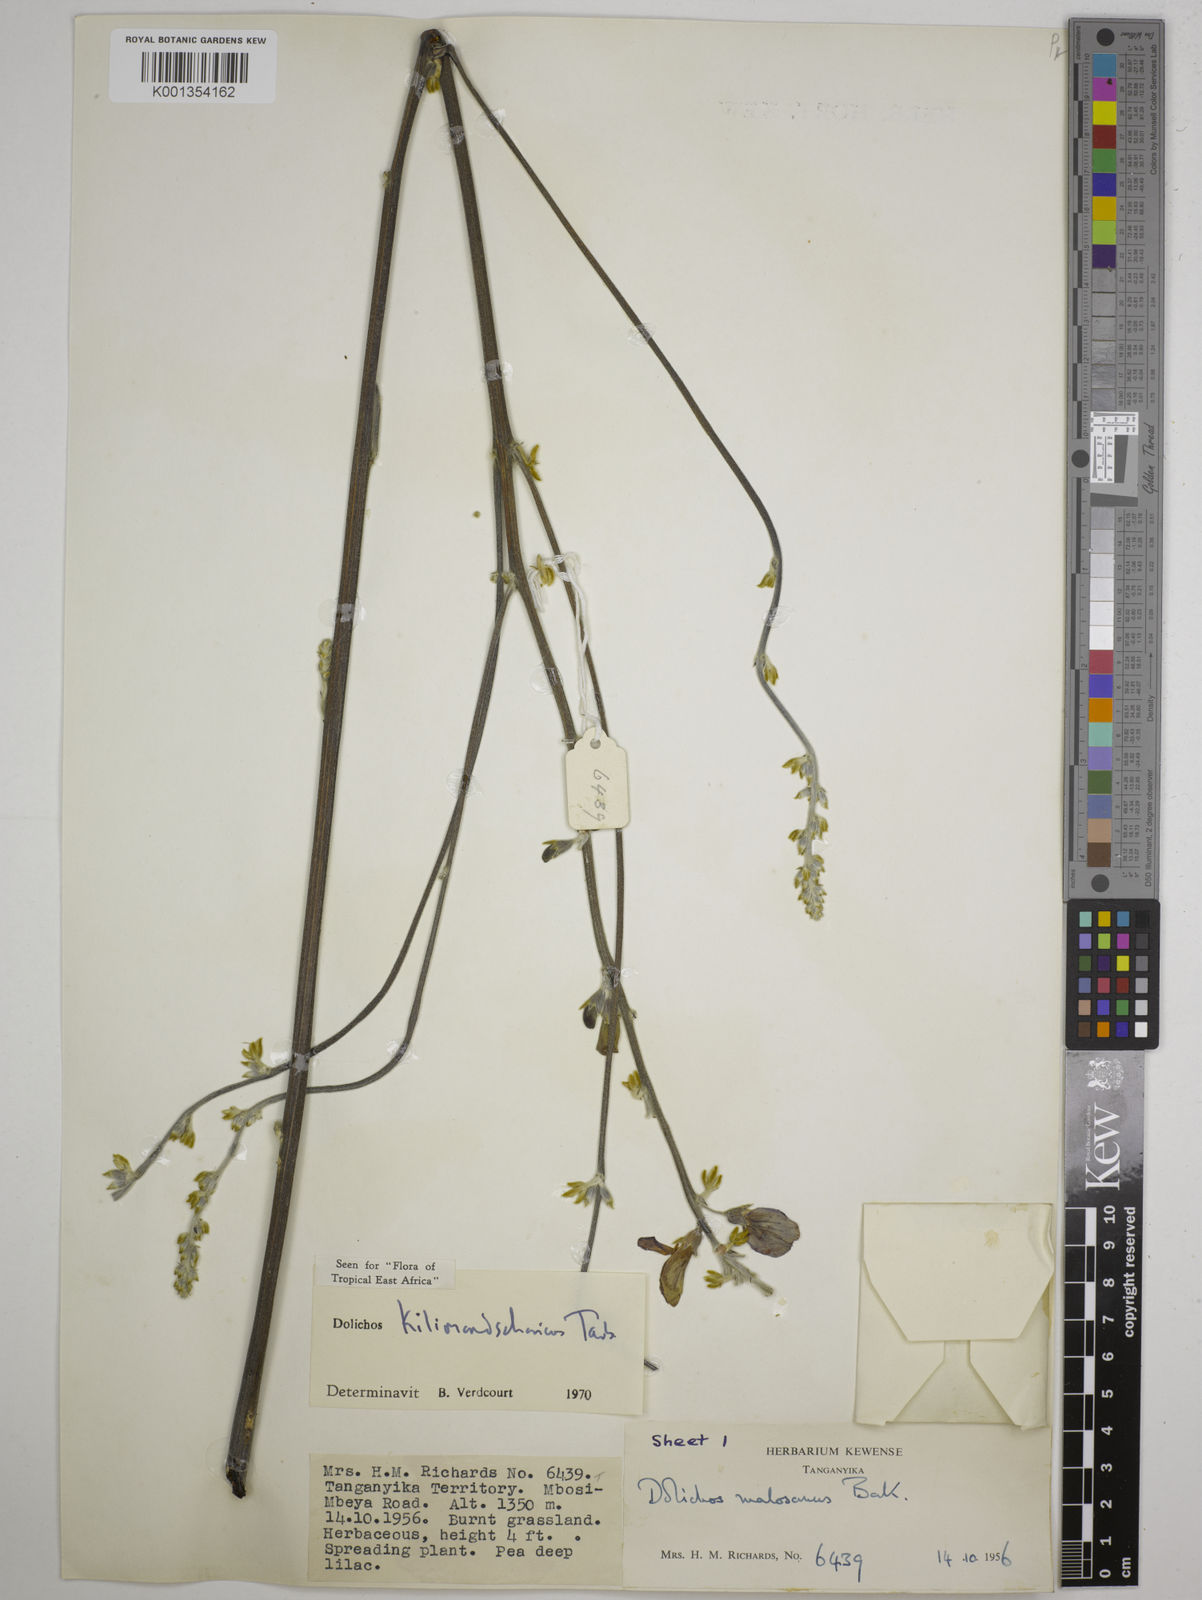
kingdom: Plantae
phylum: Tracheophyta
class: Magnoliopsida
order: Fabales
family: Fabaceae
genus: Dolichos
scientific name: Dolichos kilimandscharicus
